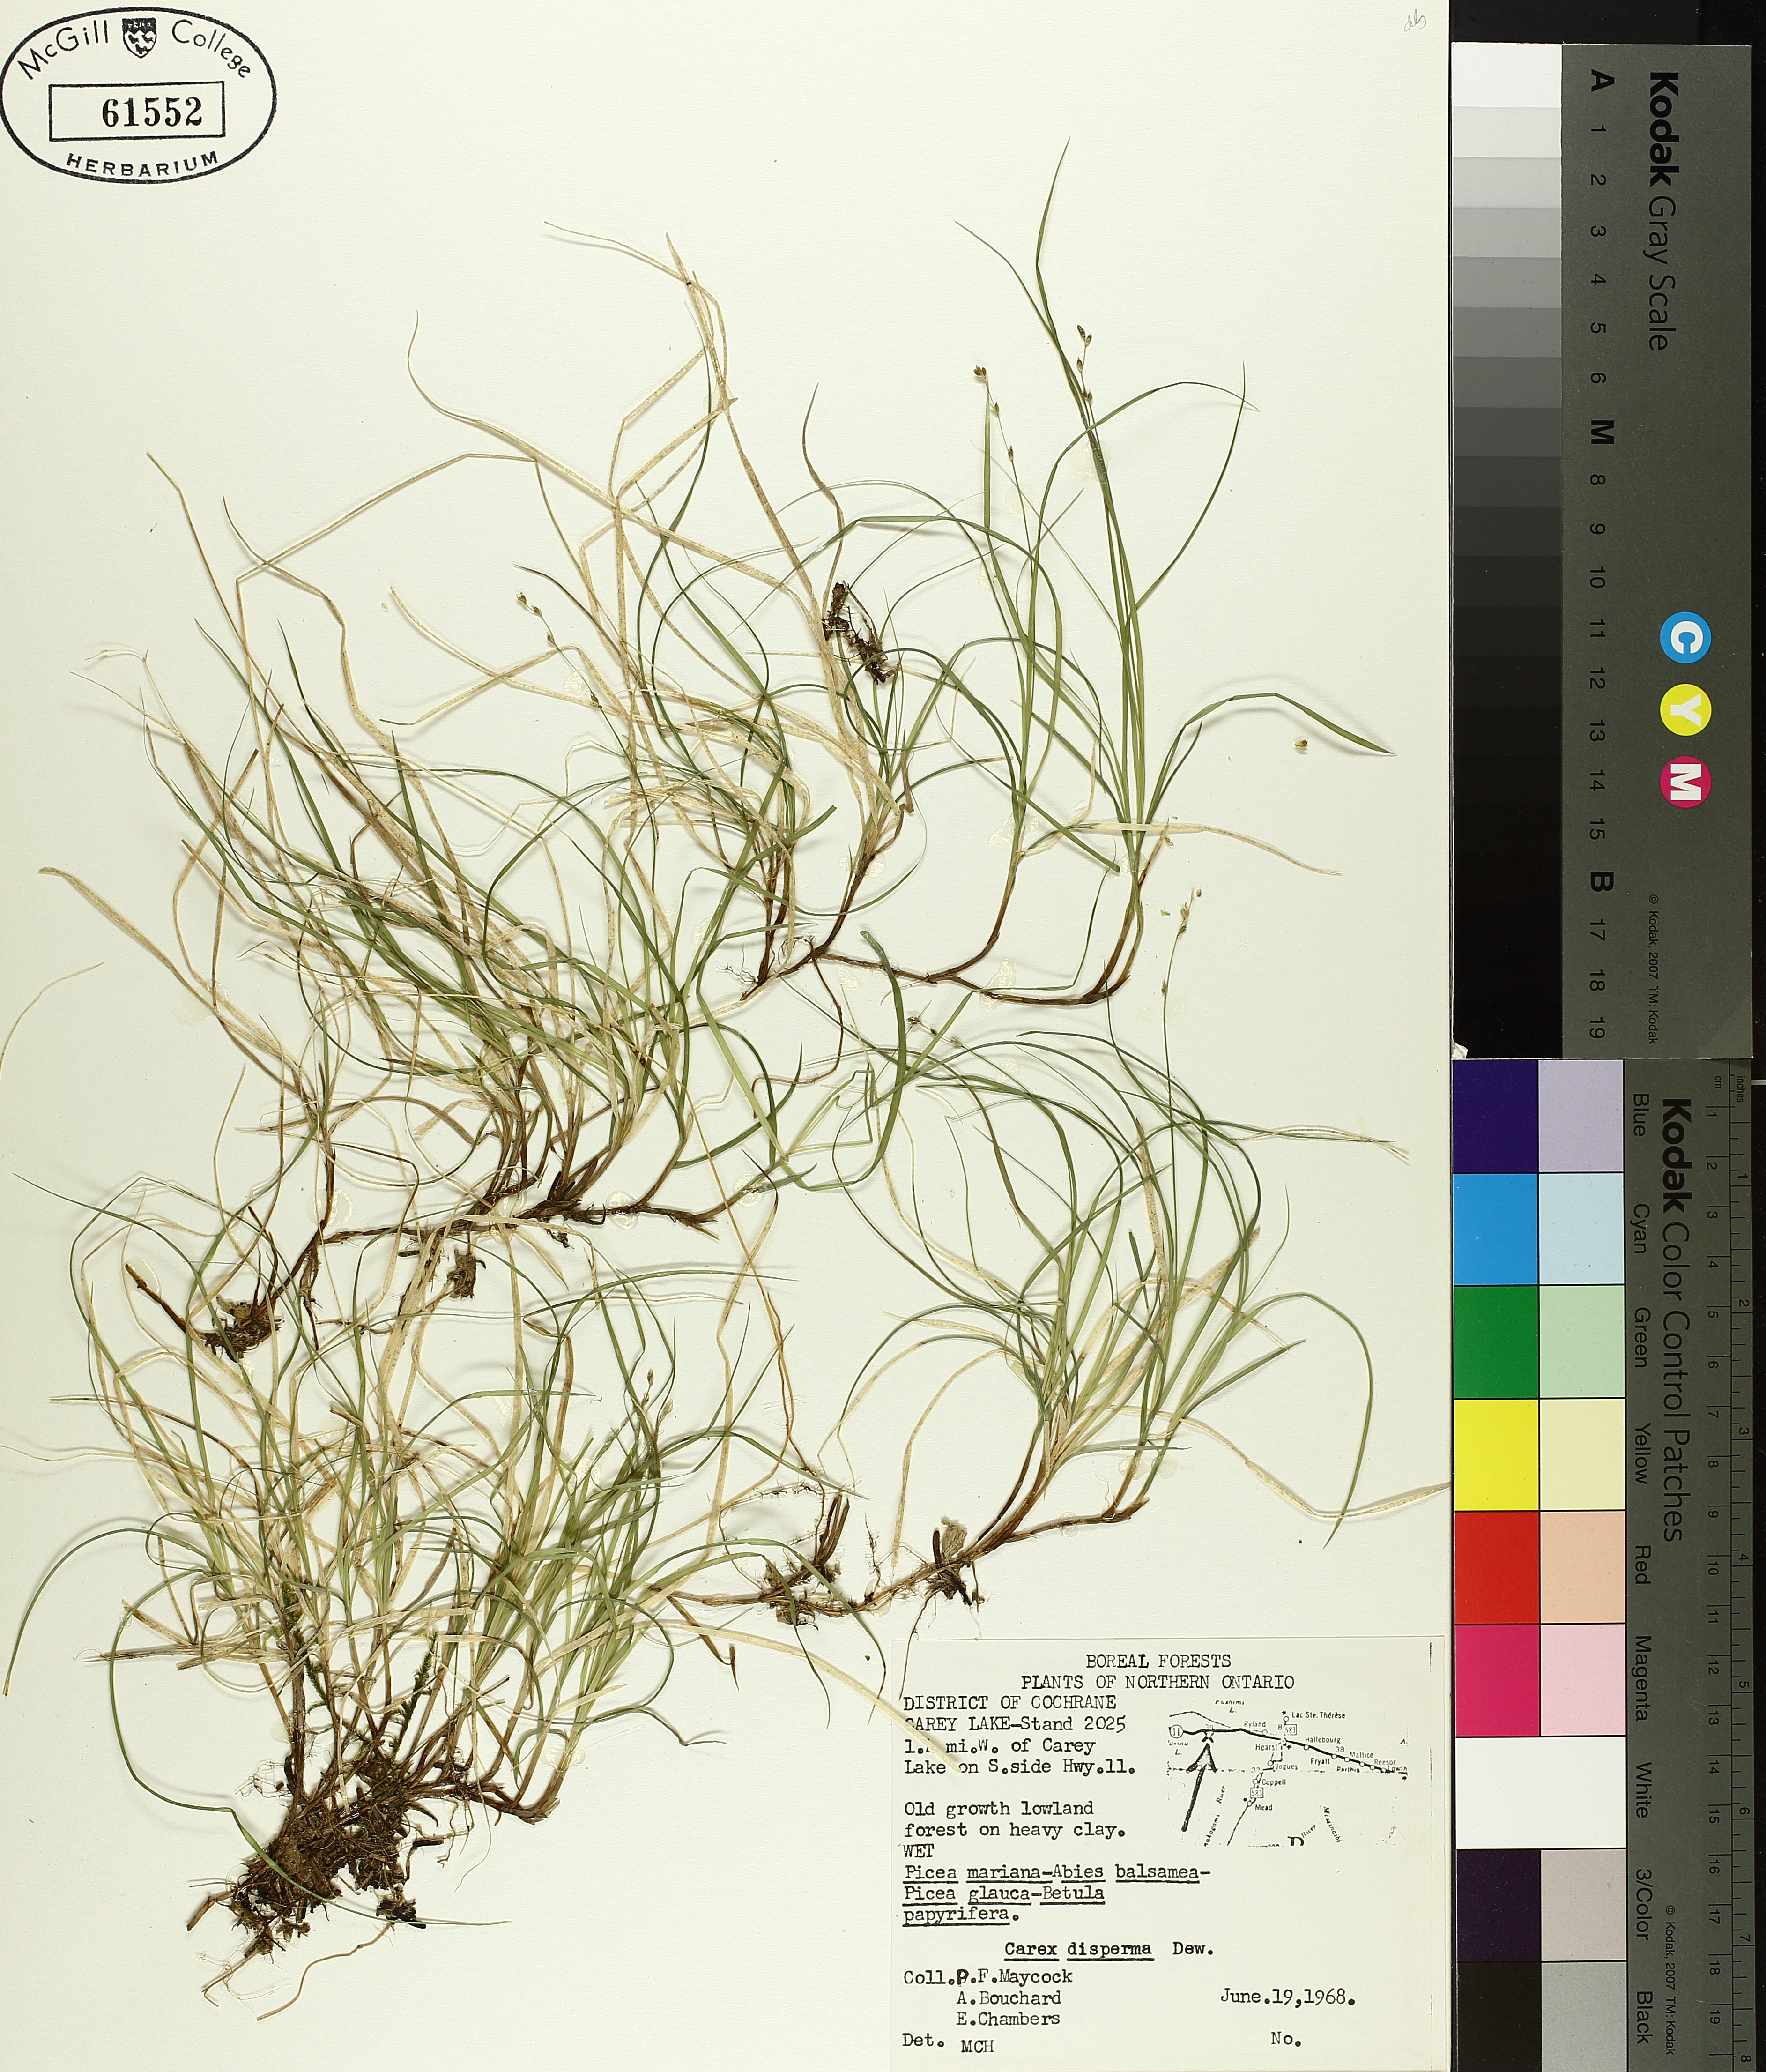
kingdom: Plantae
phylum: Tracheophyta
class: Liliopsida
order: Poales
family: Cyperaceae
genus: Carex
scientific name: Carex disperma
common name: Short-leaved sedge
